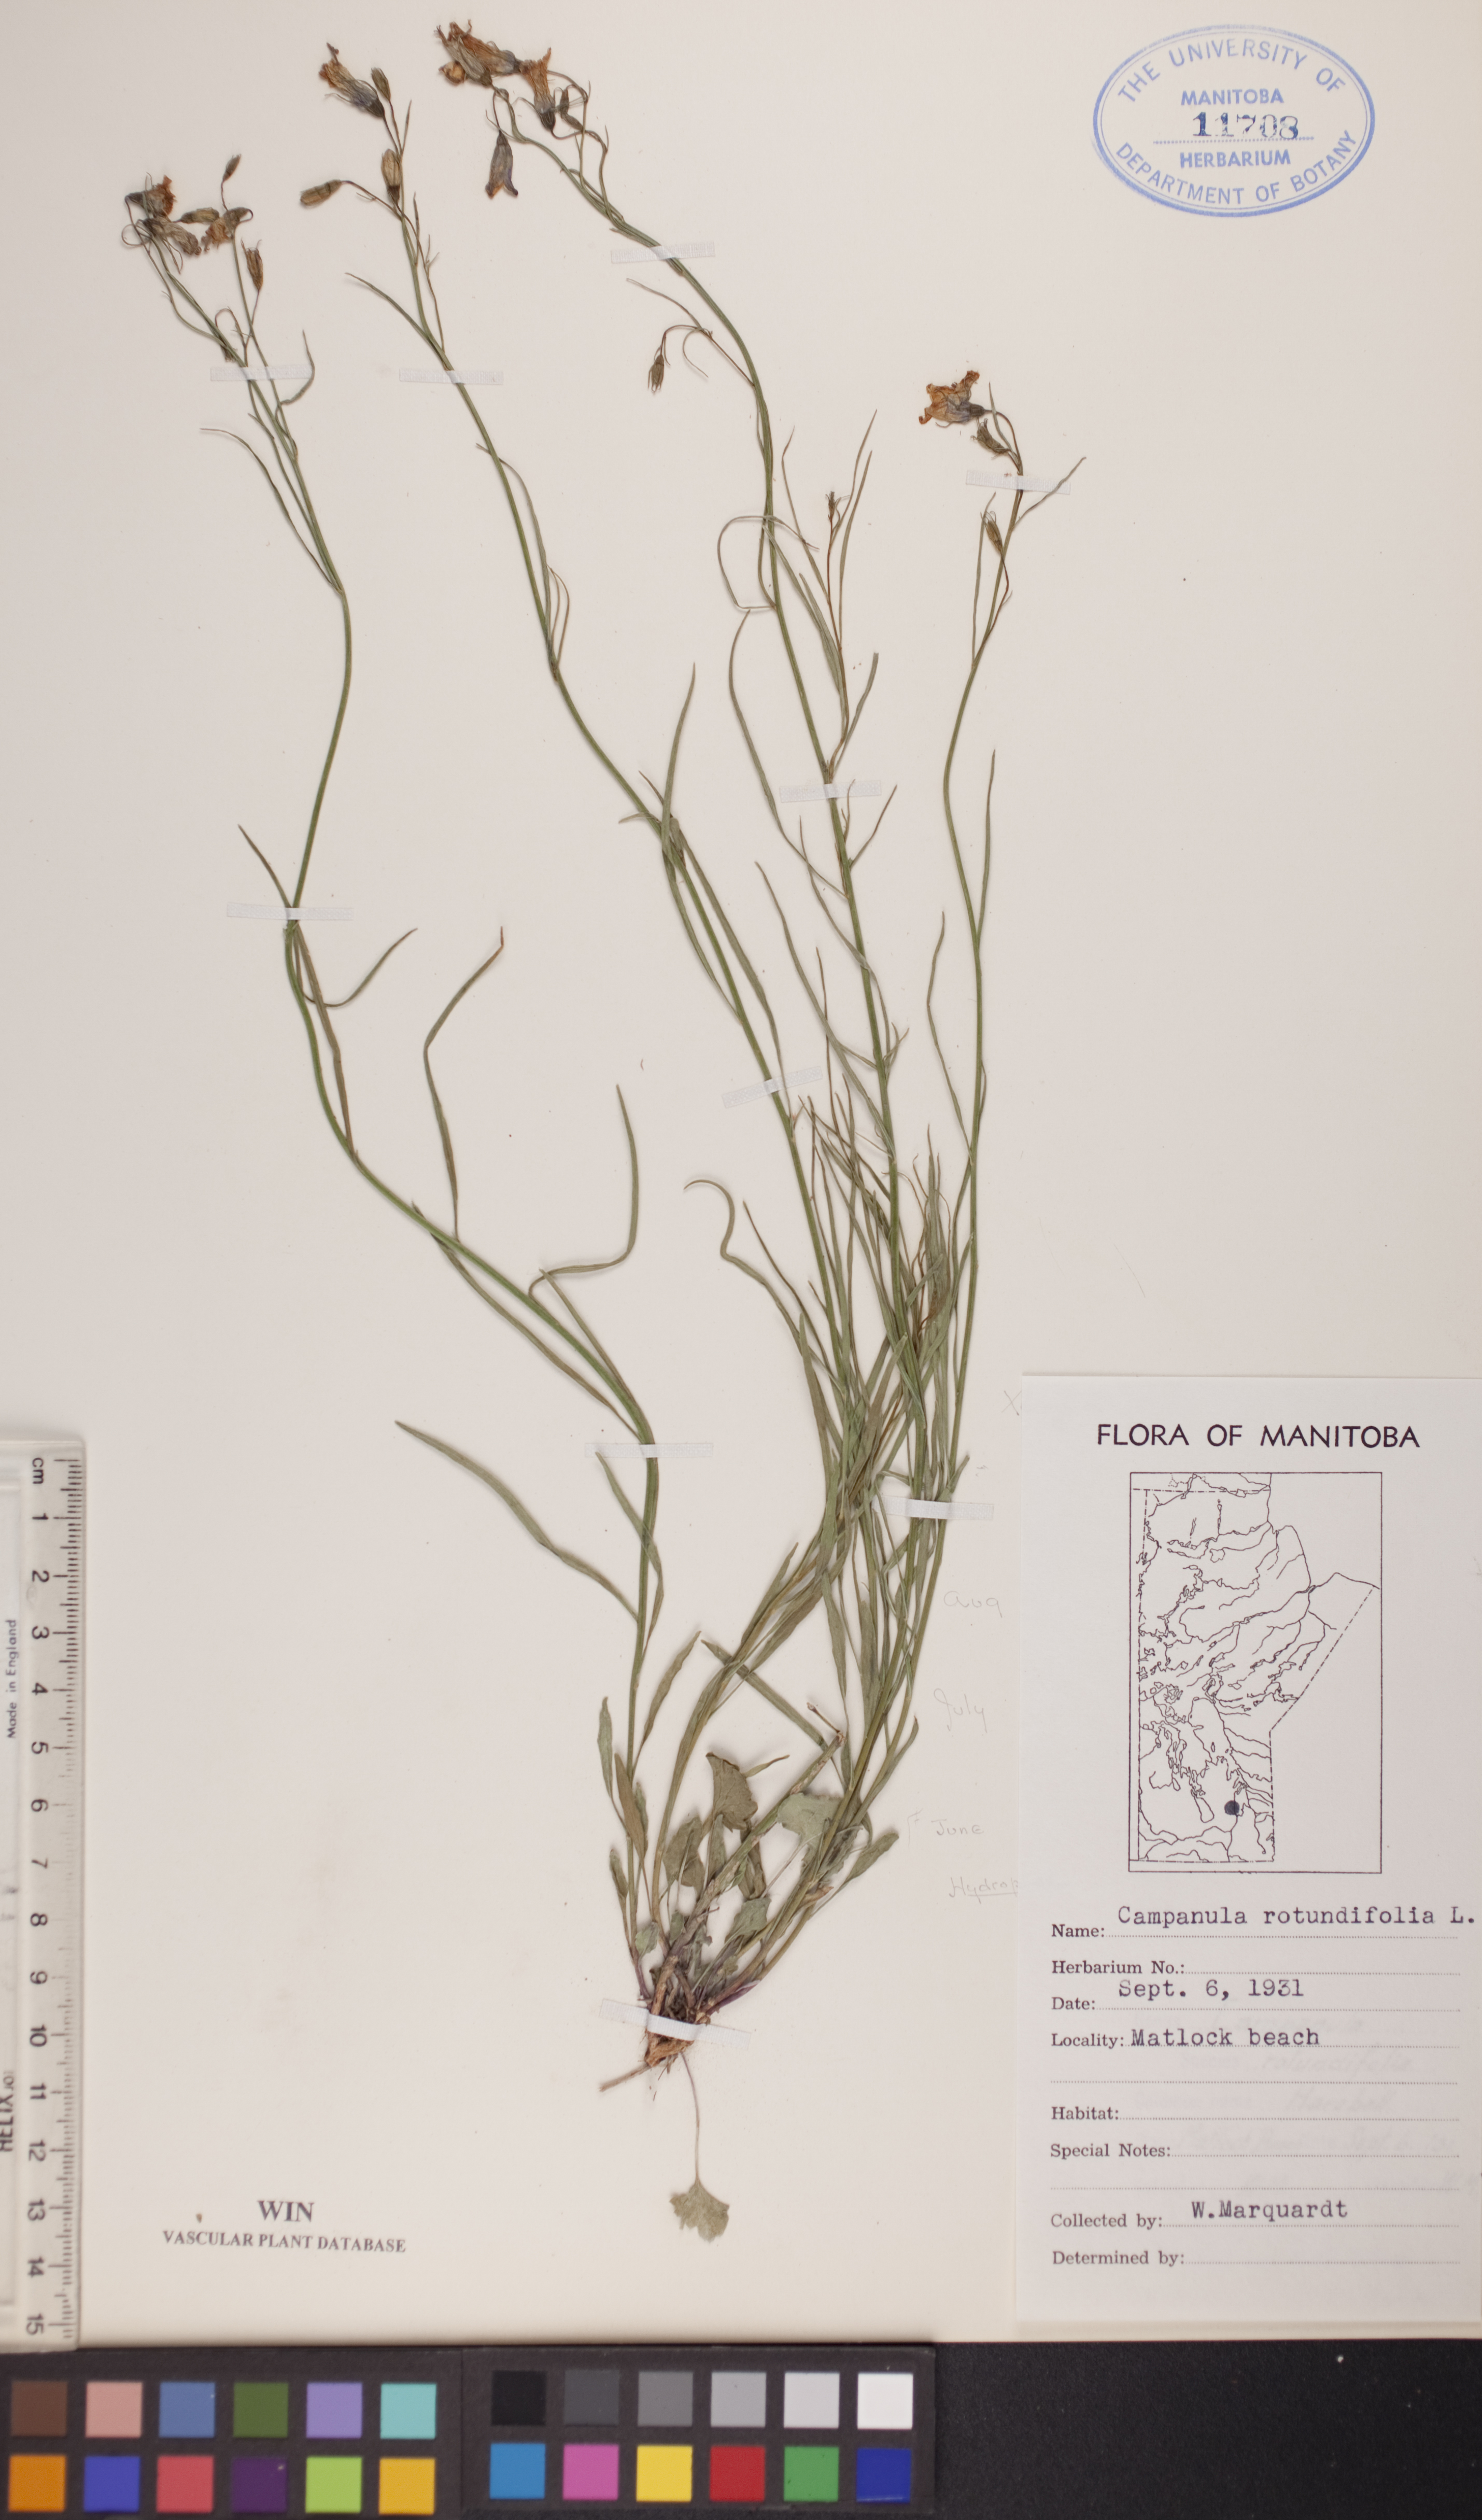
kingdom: Plantae
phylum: Tracheophyta
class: Magnoliopsida
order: Asterales
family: Campanulaceae
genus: Campanula
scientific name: Campanula rotundifolia
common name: Harebell
